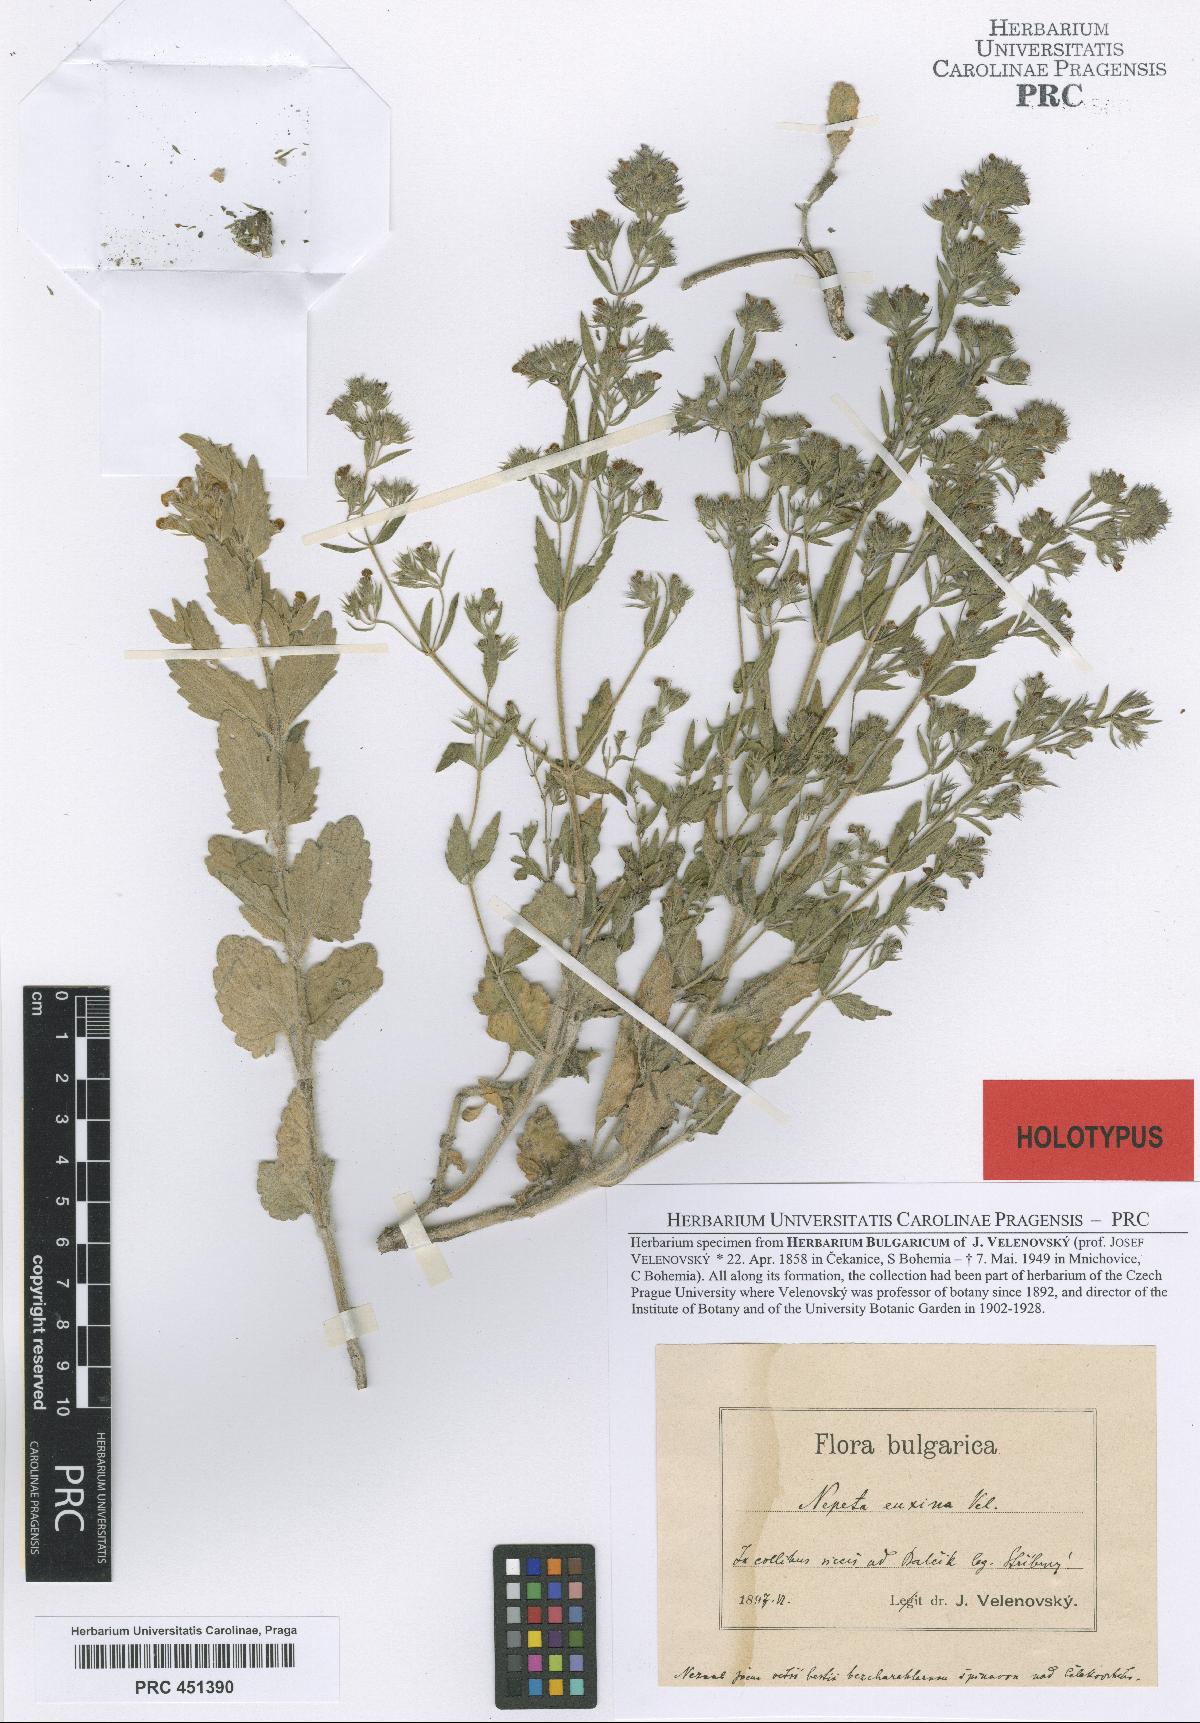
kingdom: Plantae
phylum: Tracheophyta
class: Magnoliopsida
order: Lamiales
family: Lamiaceae
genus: Nepeta
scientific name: Nepeta ucranica
